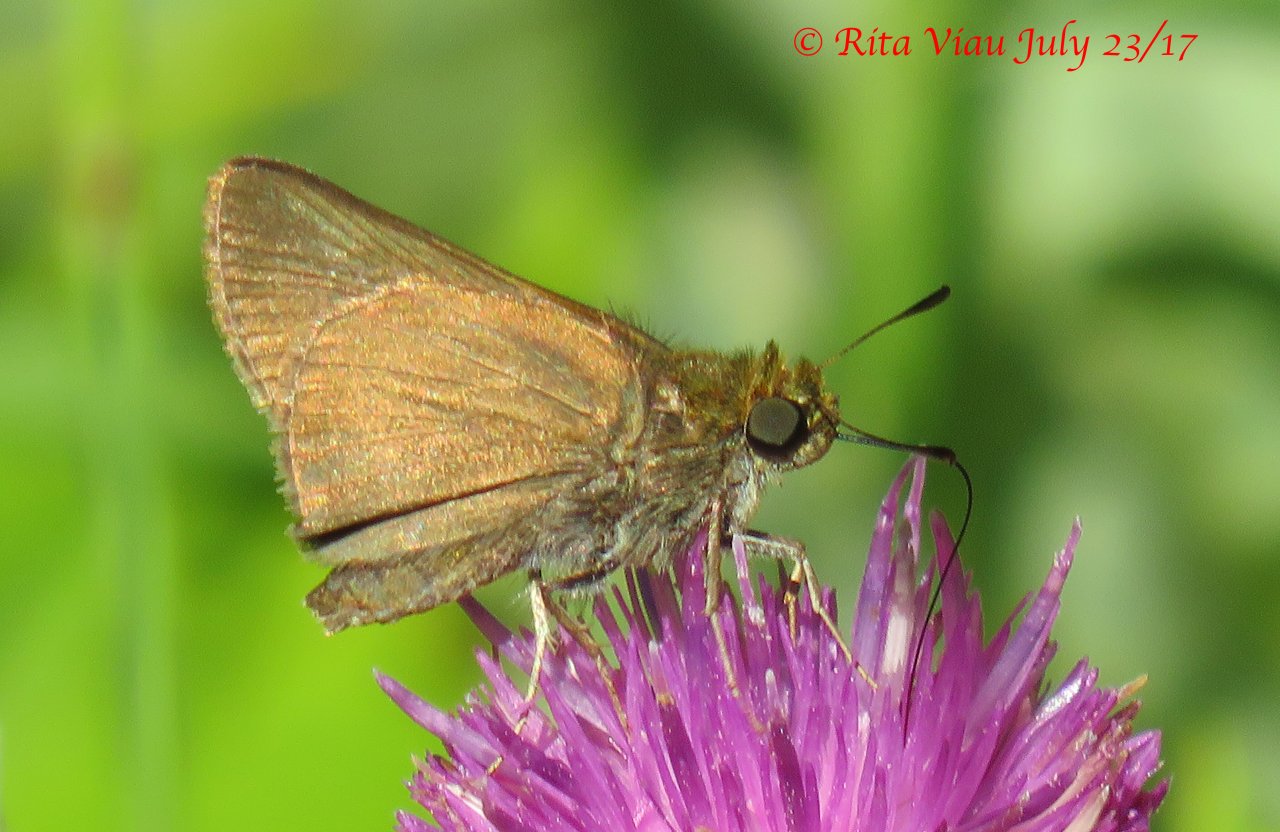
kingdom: Animalia
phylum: Arthropoda
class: Insecta
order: Lepidoptera
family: Hesperiidae
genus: Euphyes
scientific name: Euphyes vestris
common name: Dun Skipper
